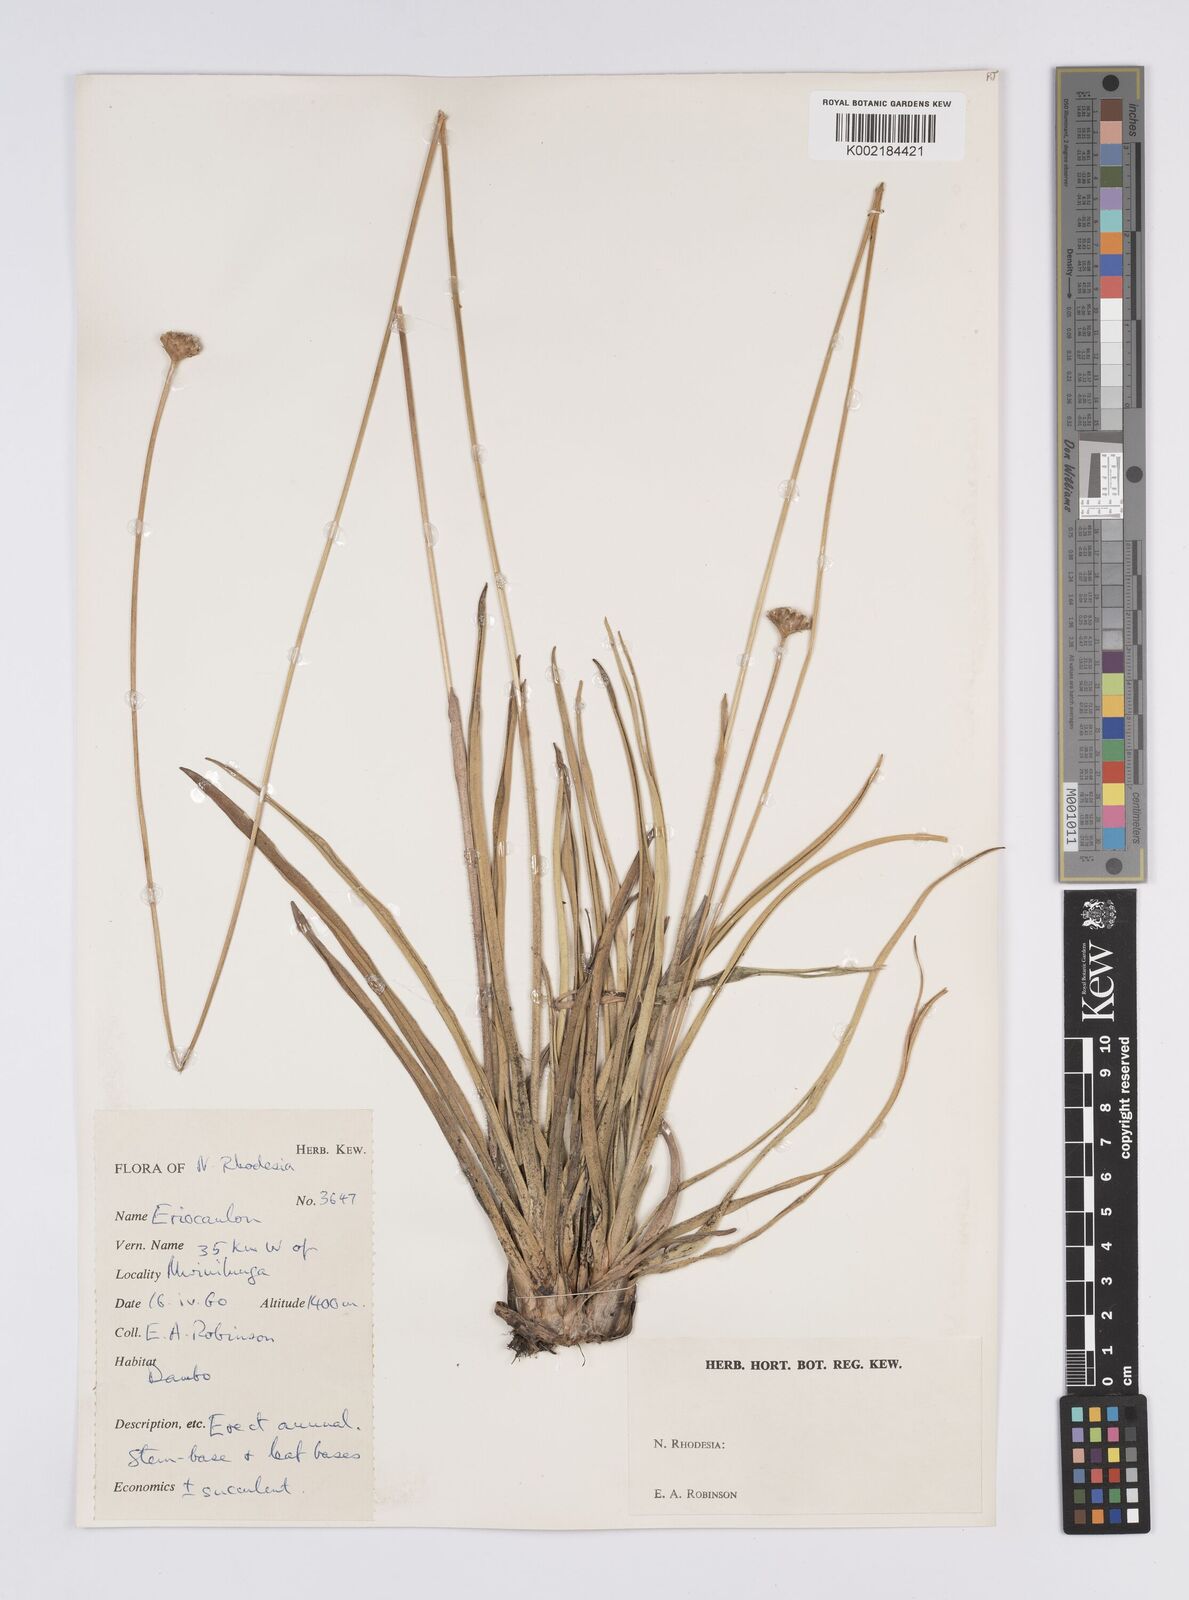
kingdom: Plantae
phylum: Tracheophyta
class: Liliopsida
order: Poales
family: Eriocaulaceae
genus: Eriocaulon
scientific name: Eriocaulon
